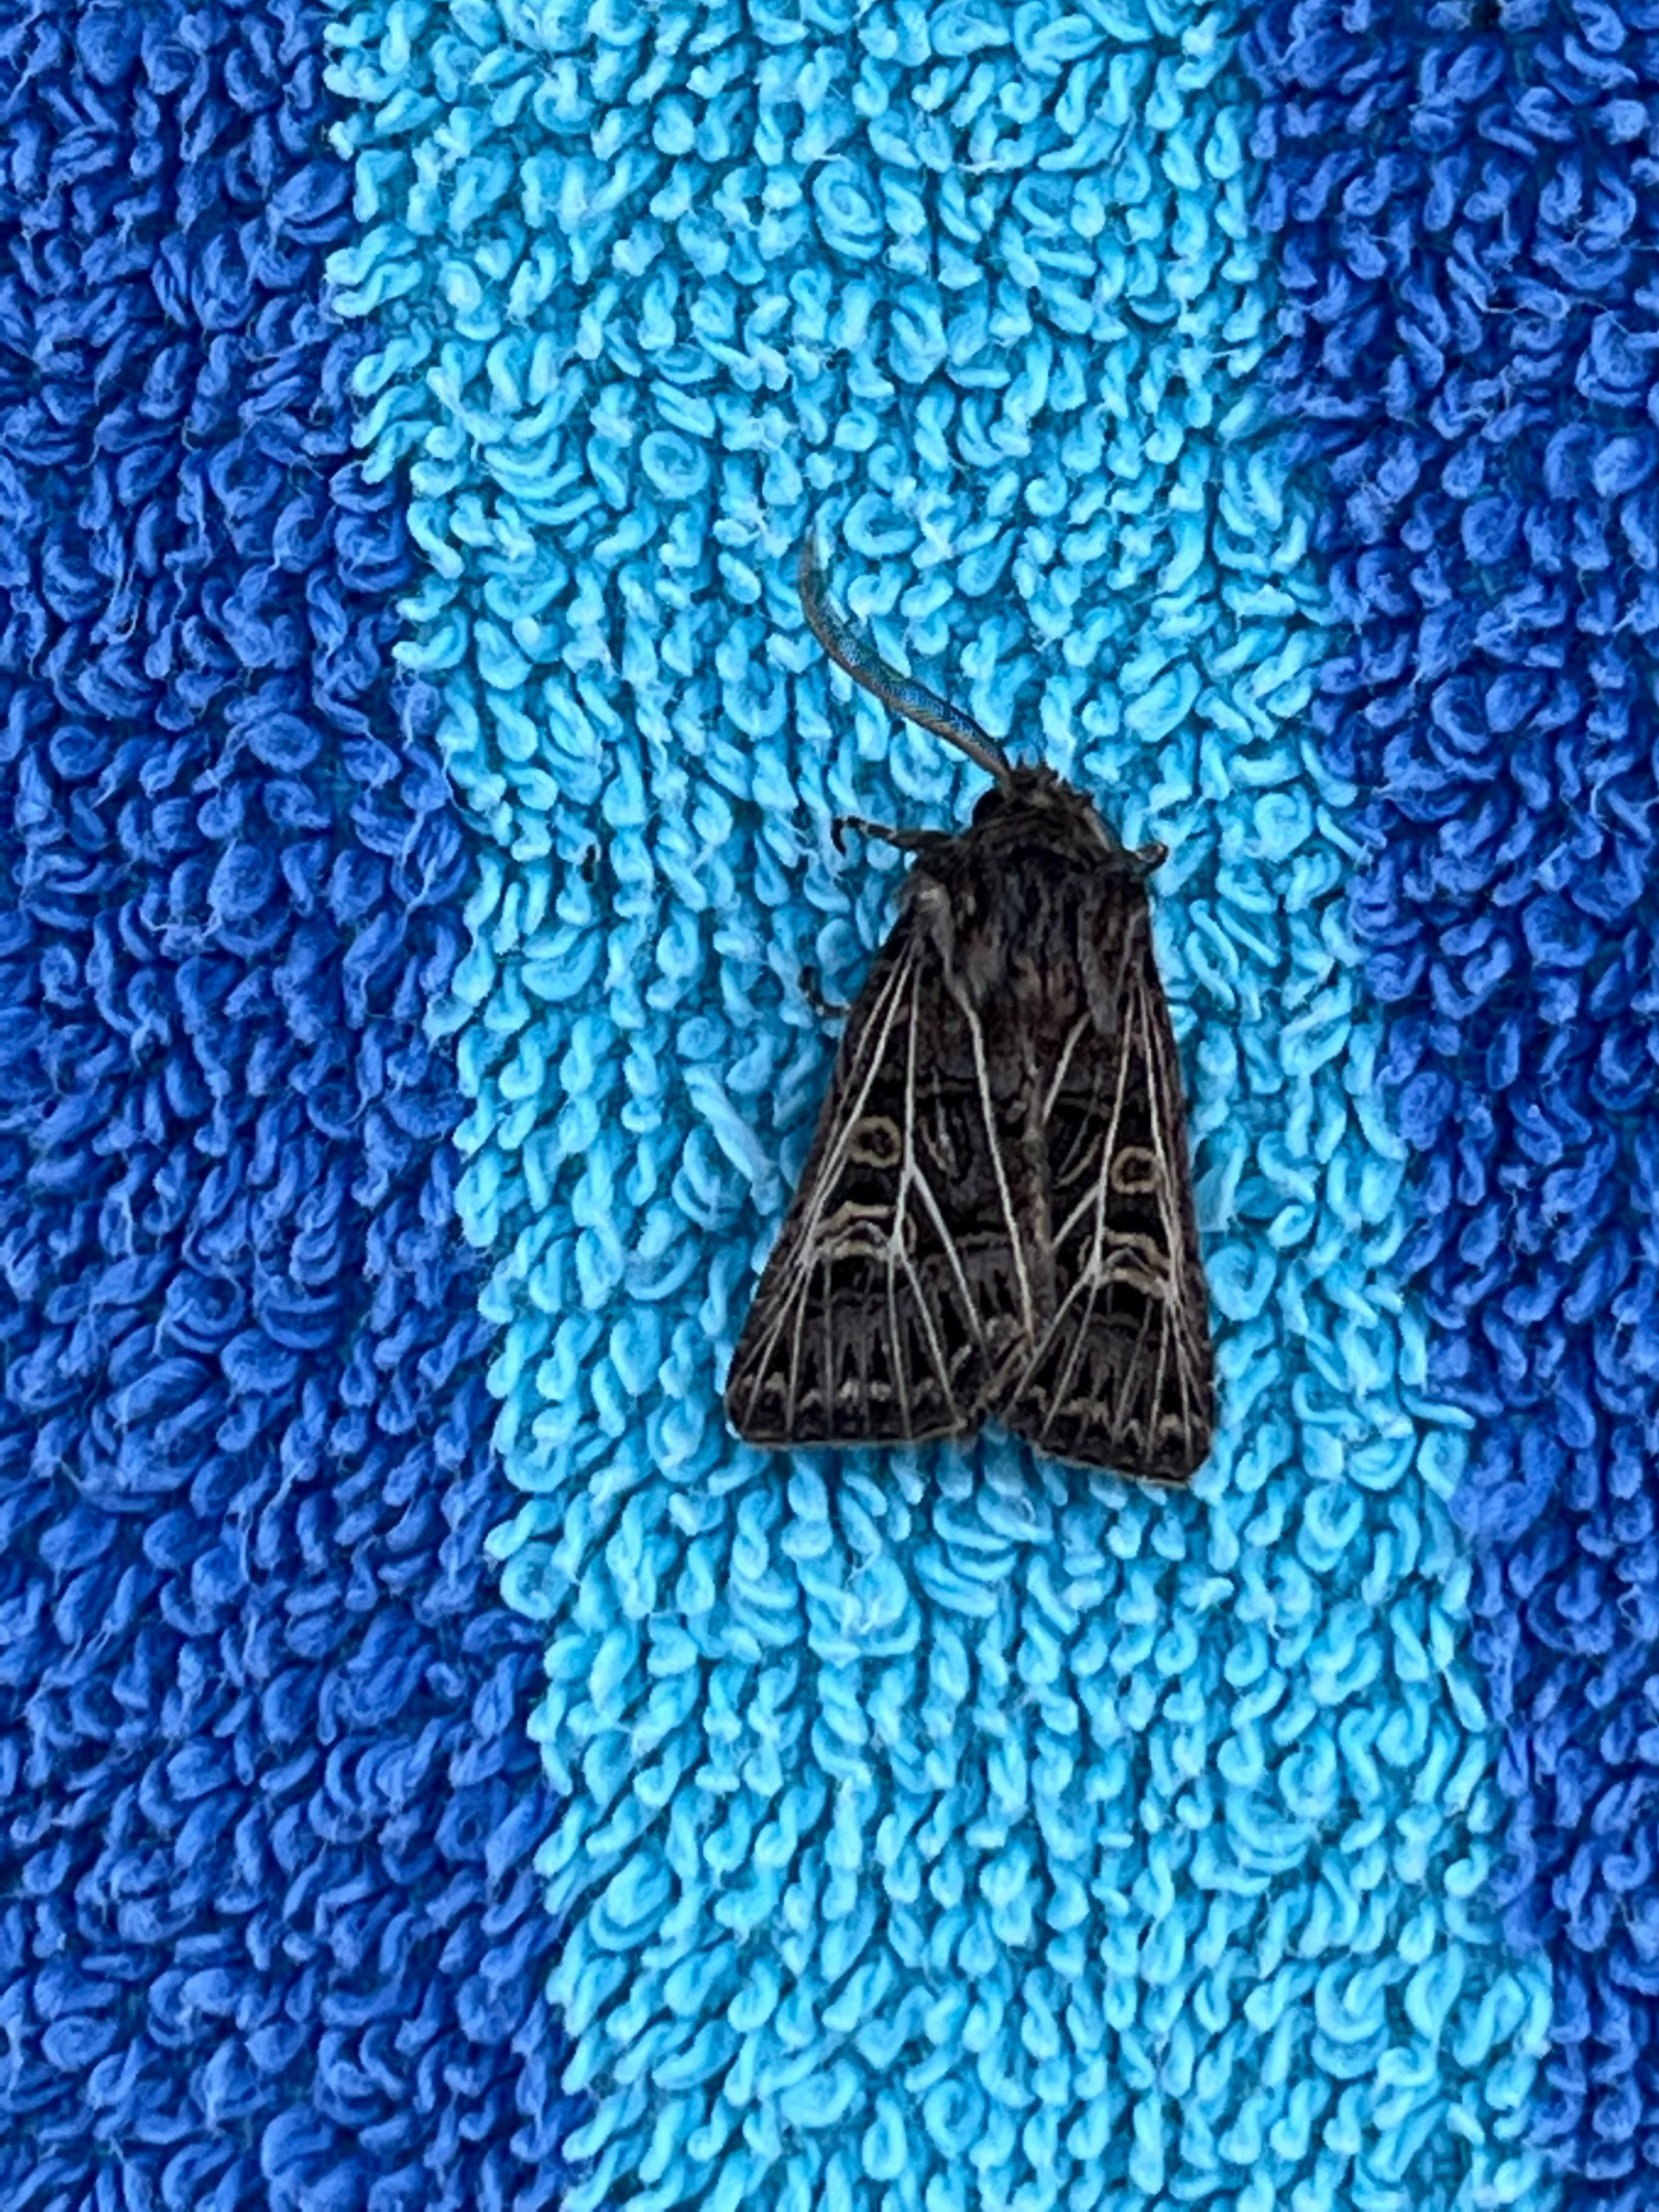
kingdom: Animalia
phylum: Arthropoda
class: Insecta
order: Lepidoptera
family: Noctuidae
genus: Tholera
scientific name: Tholera decimalis
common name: Hvidåret græsugle
